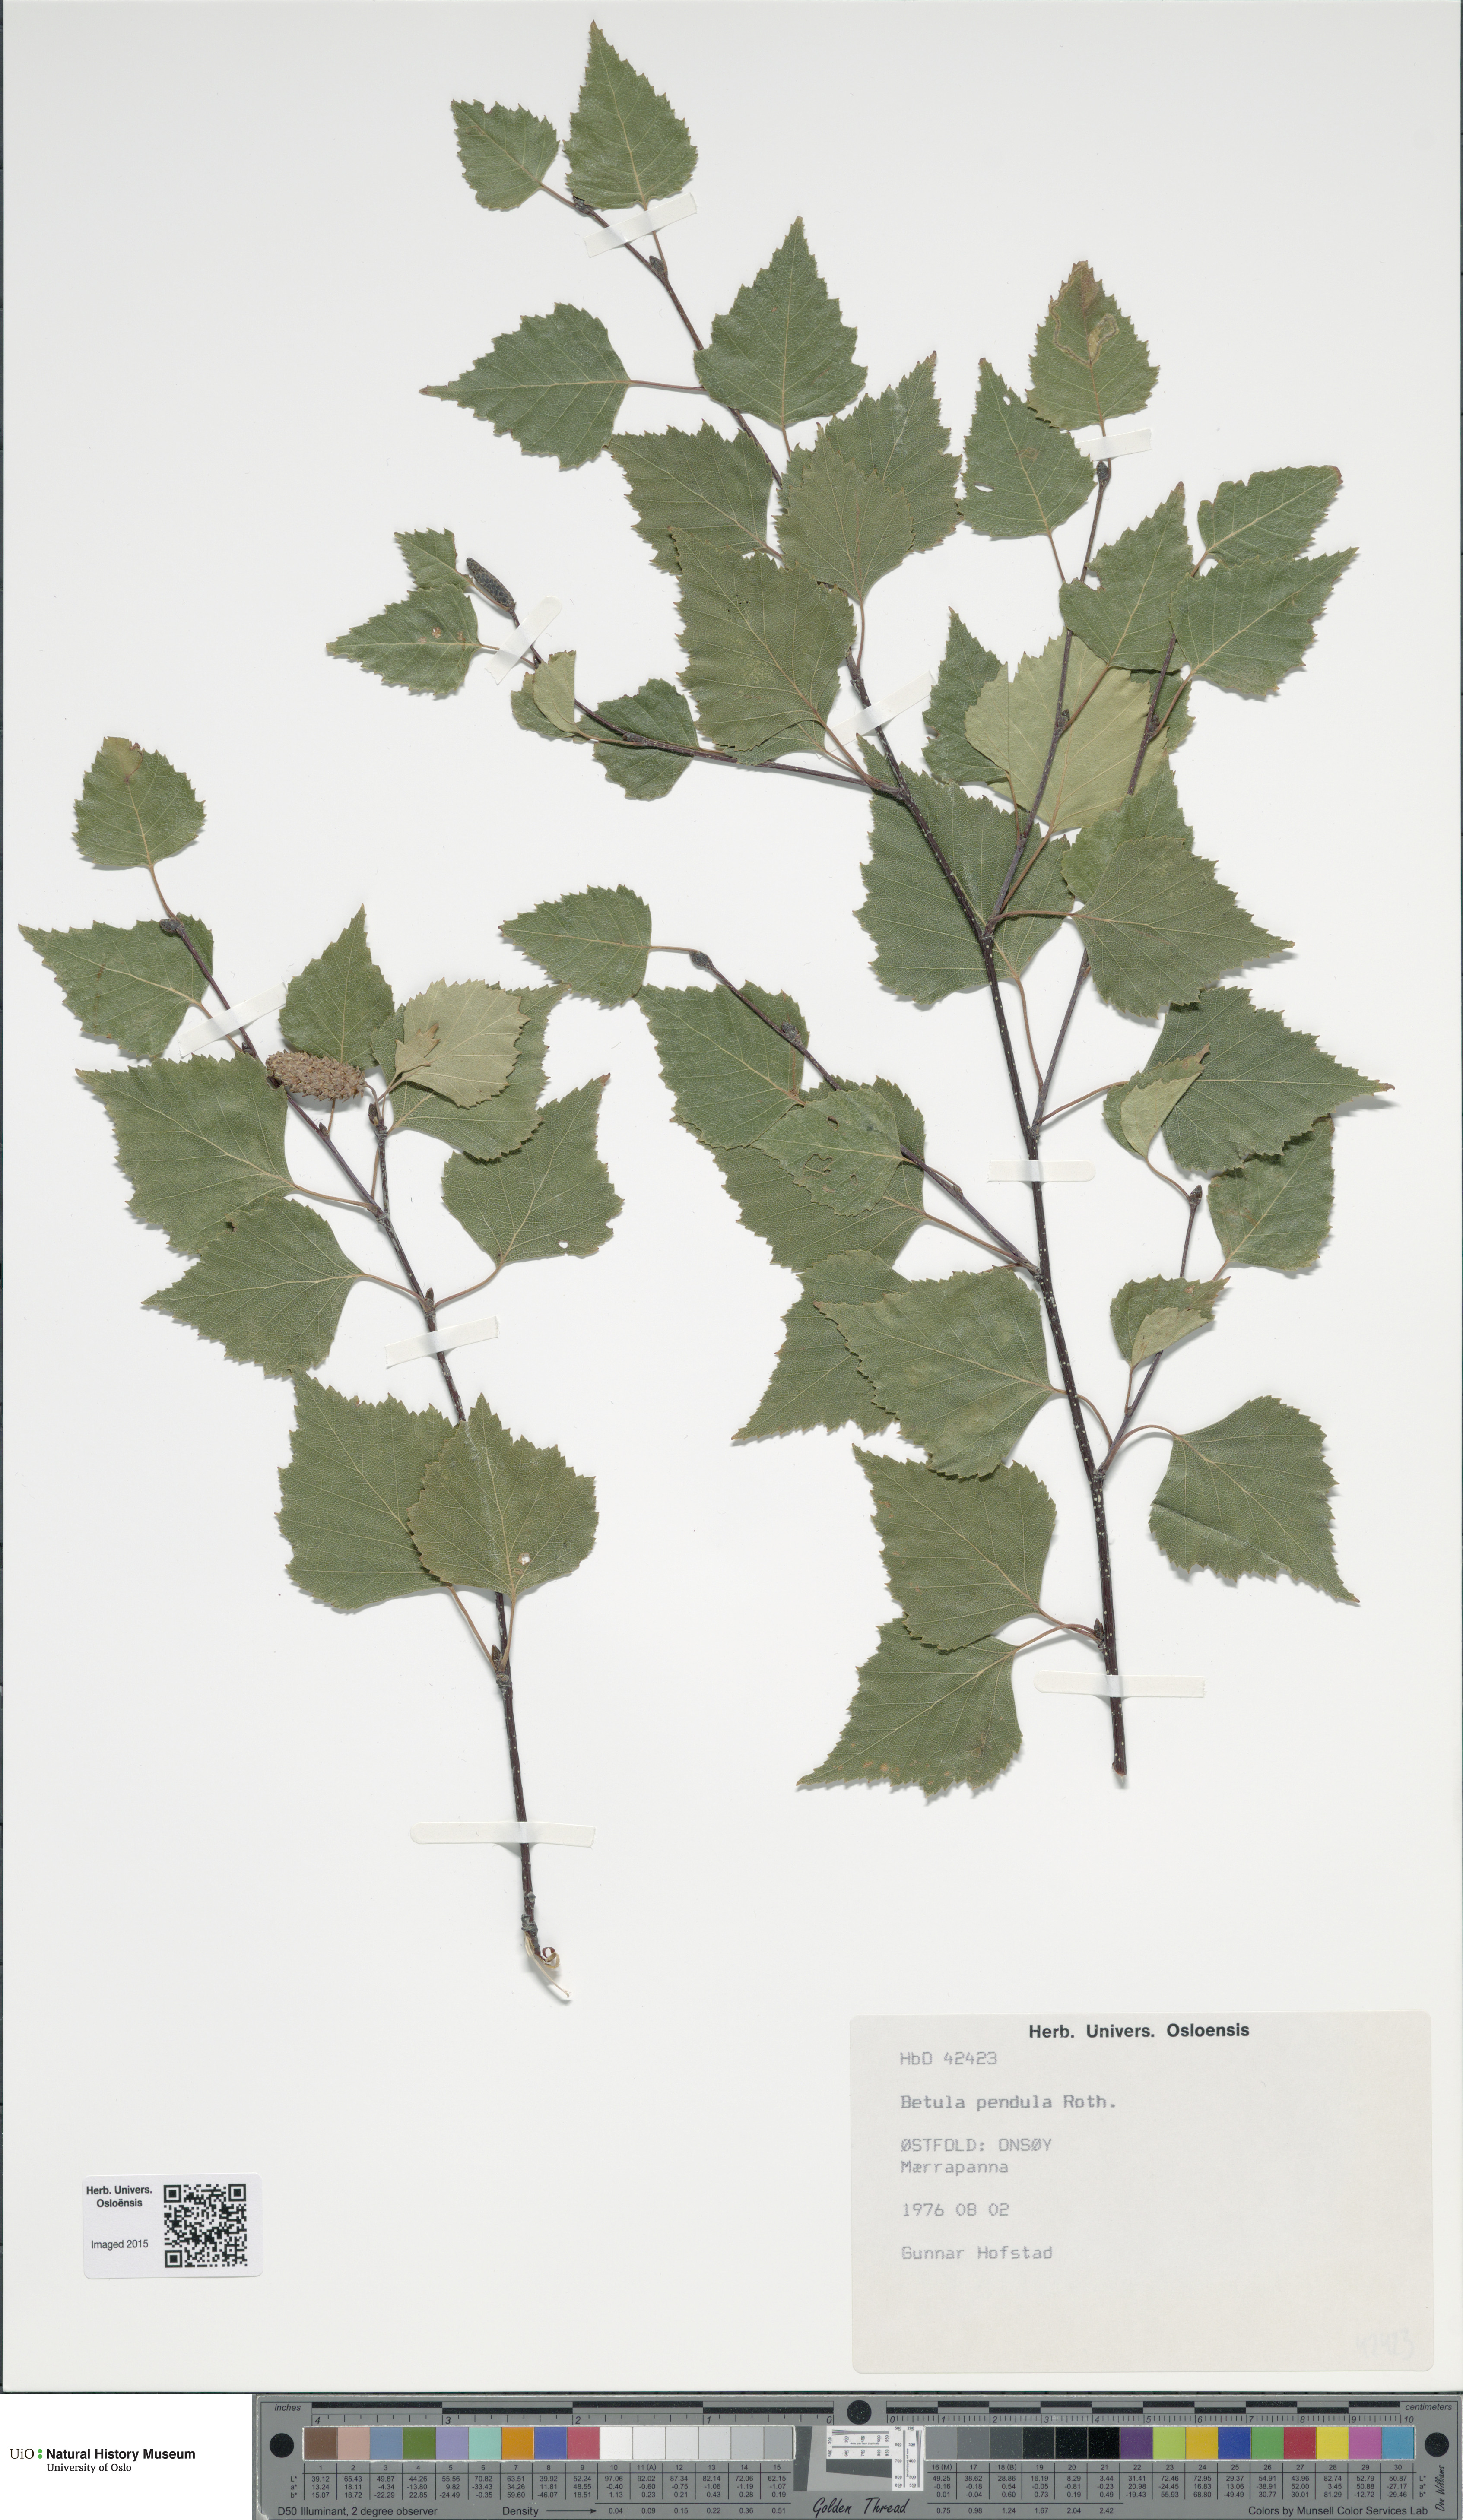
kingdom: Plantae
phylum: Tracheophyta
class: Magnoliopsida
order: Fagales
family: Betulaceae
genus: Betula
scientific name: Betula pendula
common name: Silver birch
